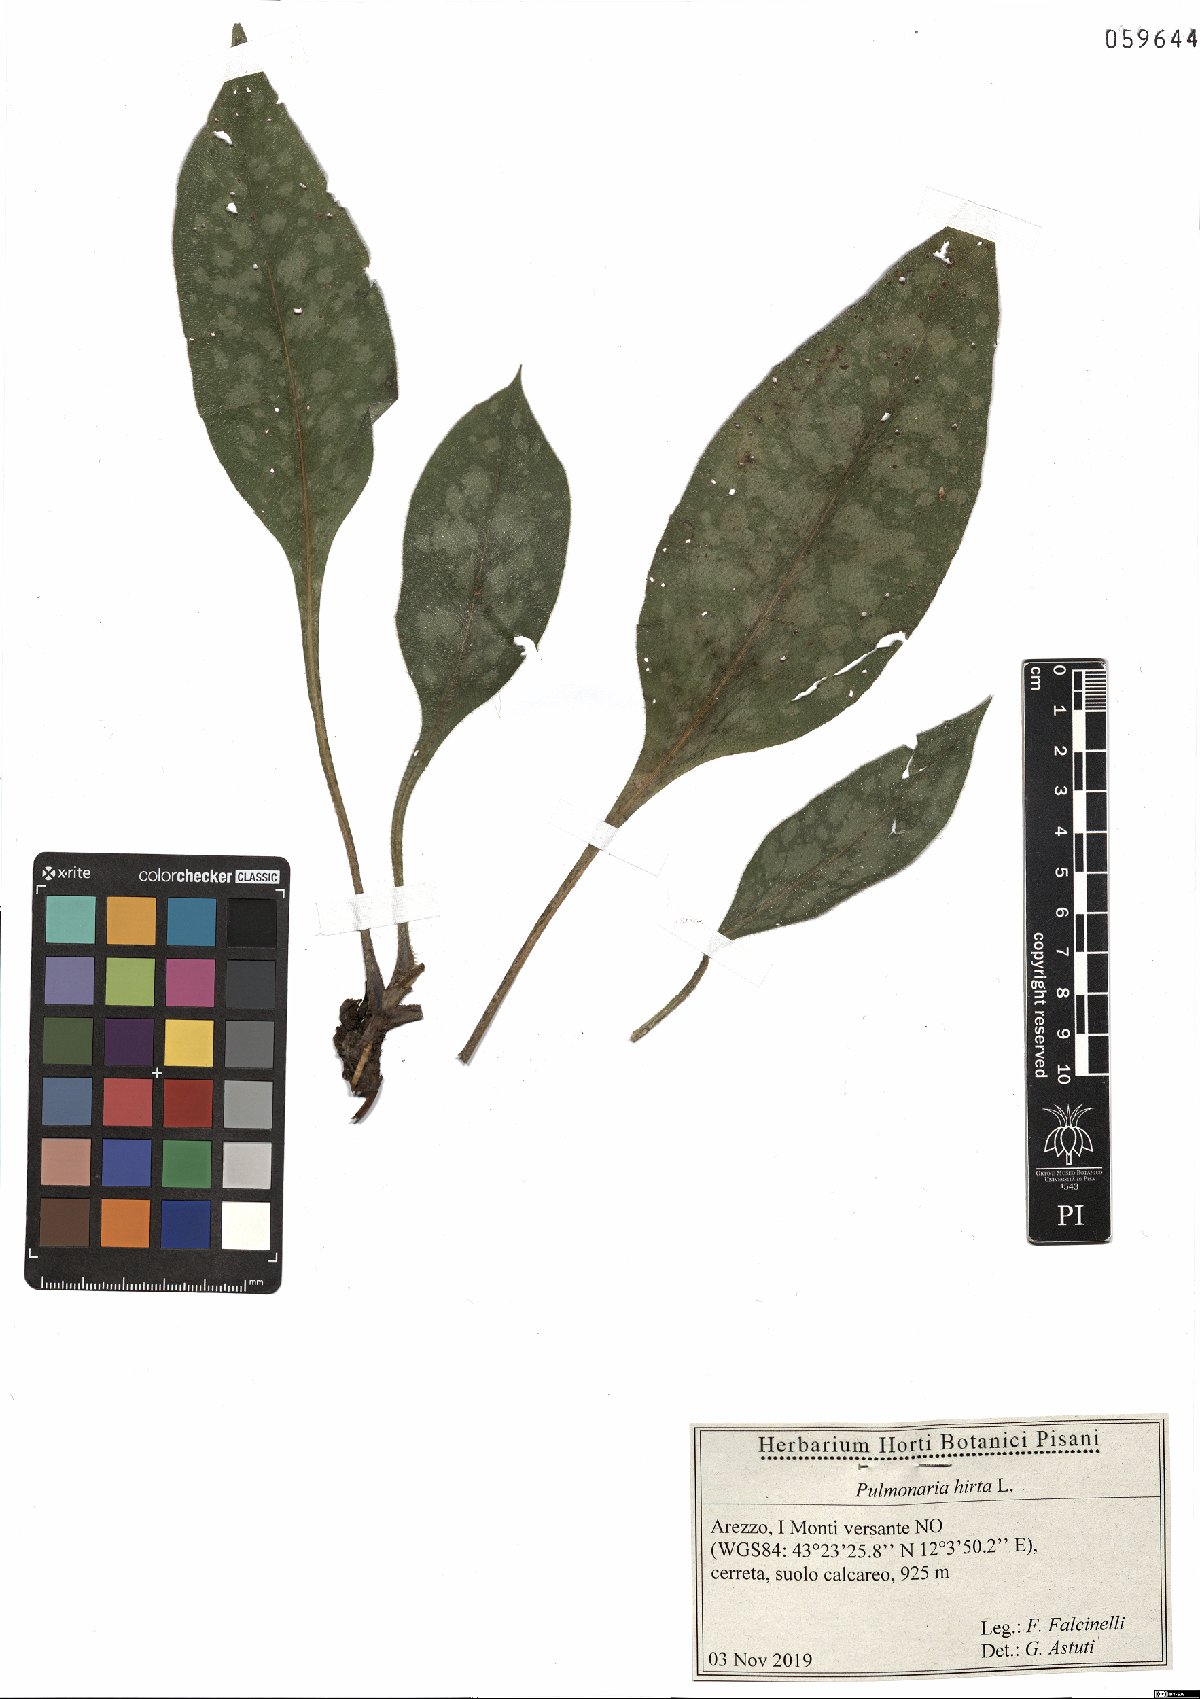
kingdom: Plantae
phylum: Tracheophyta
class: Magnoliopsida
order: Boraginales
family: Boraginaceae
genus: Pulmonaria
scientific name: Pulmonaria hirta
